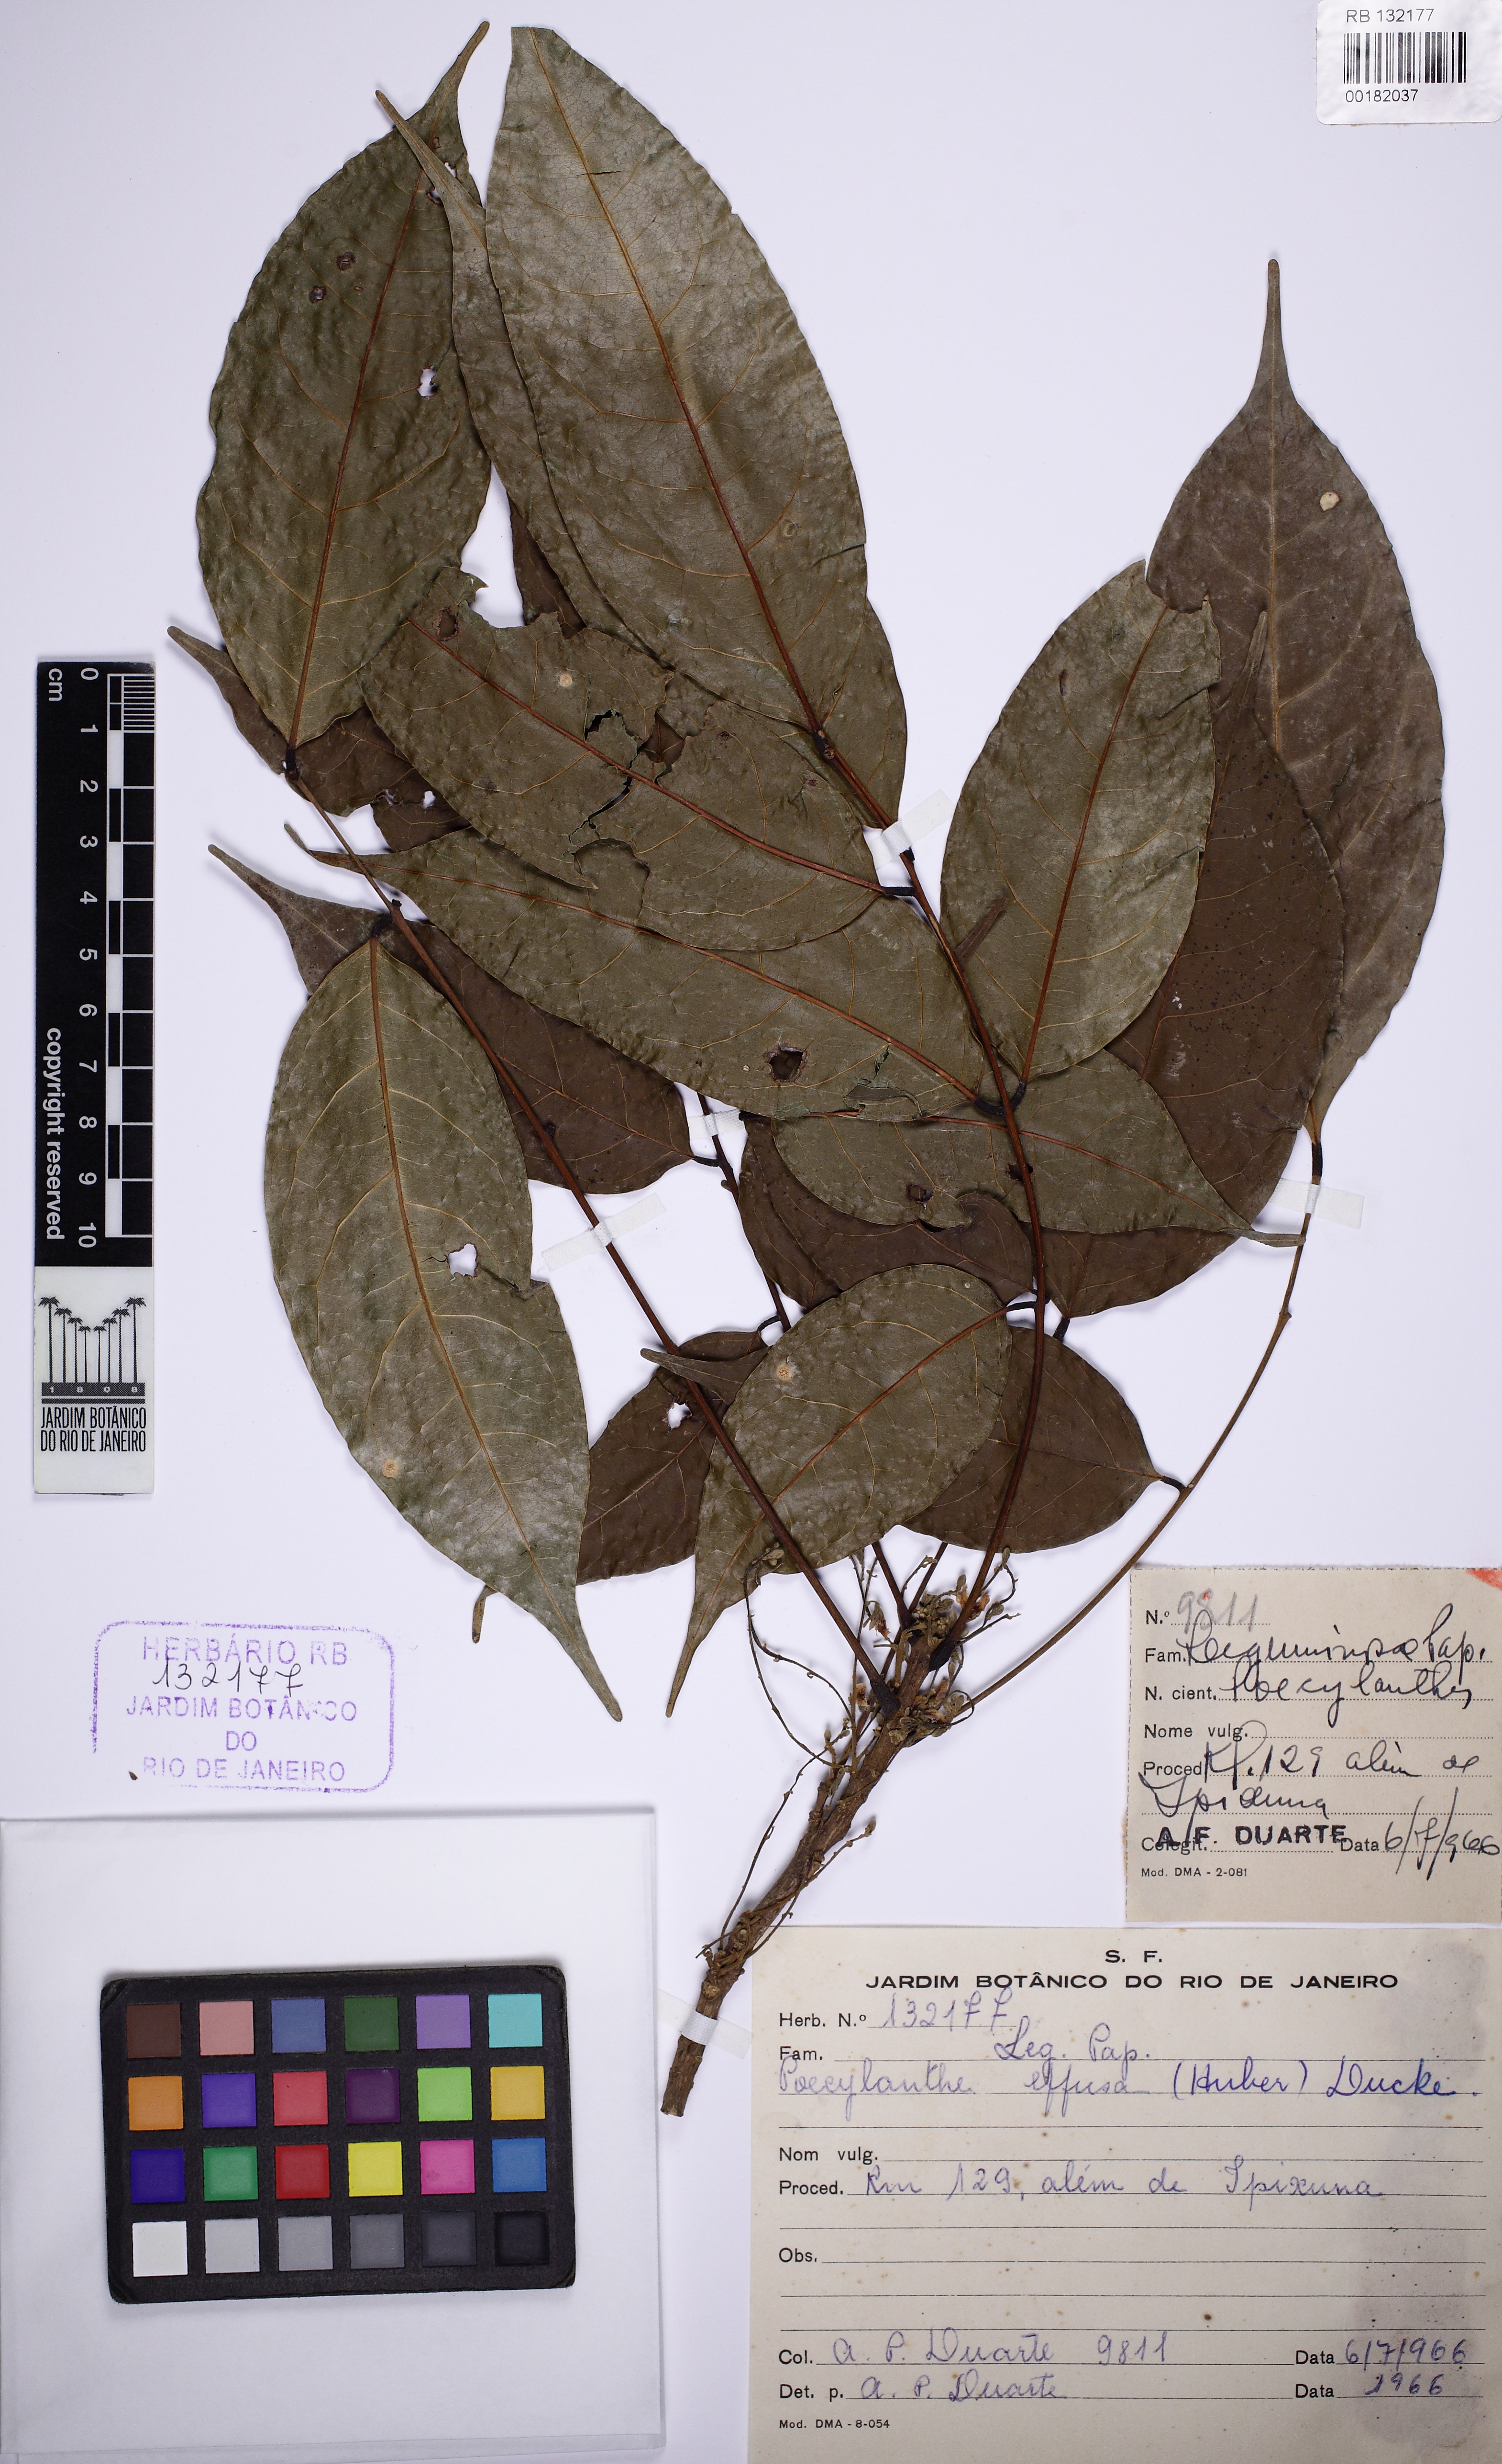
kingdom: Plantae
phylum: Tracheophyta
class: Magnoliopsida
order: Fabales
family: Fabaceae
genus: Amphiodon
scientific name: Amphiodon effusus
